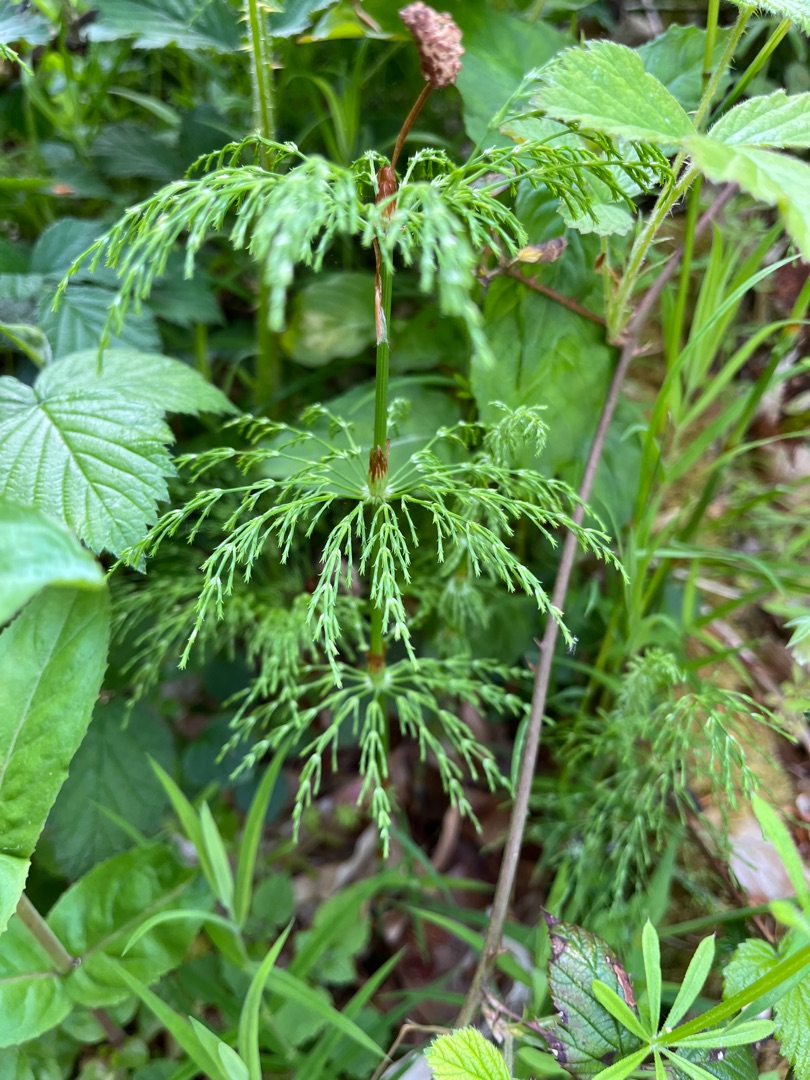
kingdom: Plantae
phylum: Tracheophyta
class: Polypodiopsida
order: Equisetales
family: Equisetaceae
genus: Equisetum
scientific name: Equisetum sylvaticum
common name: Skov-padderok
